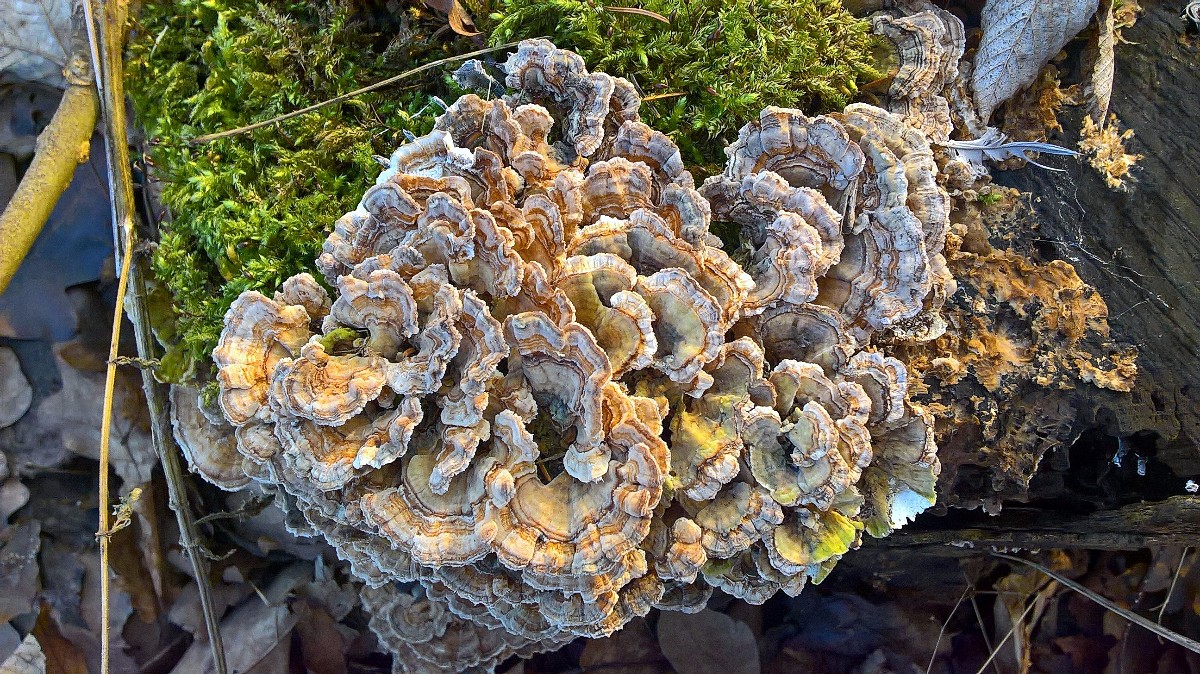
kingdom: Fungi
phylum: Basidiomycota
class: Agaricomycetes
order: Polyporales
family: Polyporaceae
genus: Trametes
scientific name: Trametes versicolor
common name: broget læderporesvamp
